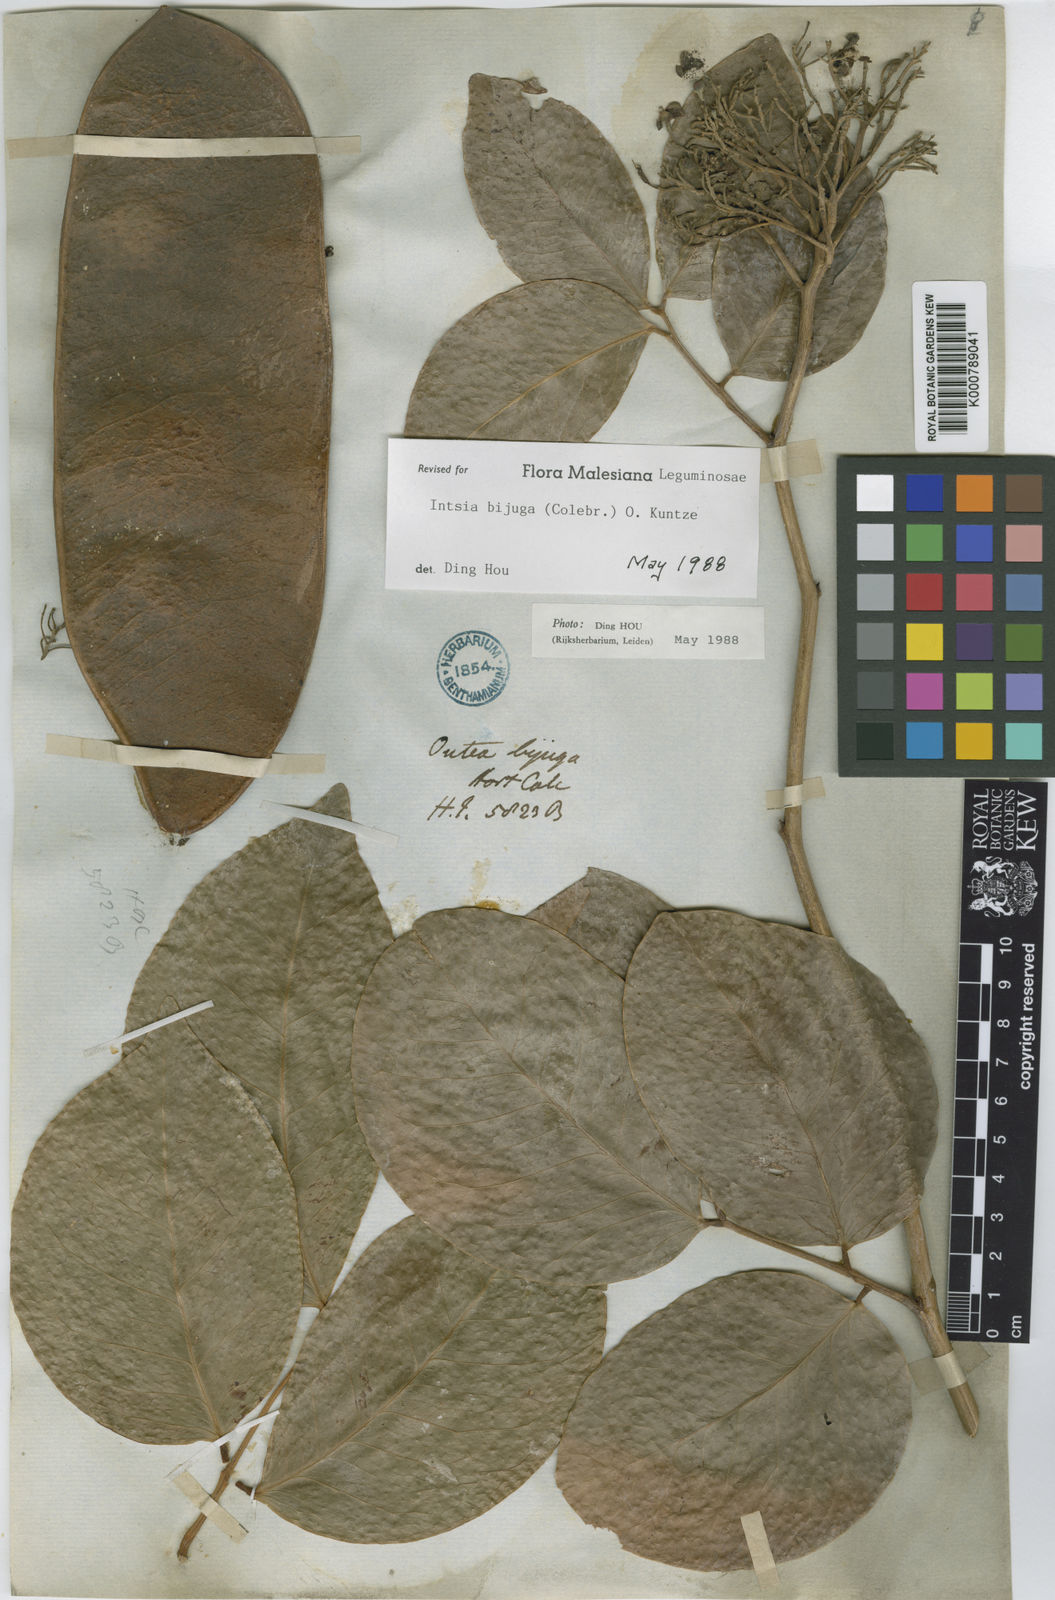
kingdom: Plantae
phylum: Tracheophyta
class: Magnoliopsida
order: Fabales
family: Fabaceae
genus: Intsia
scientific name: Intsia bijuga
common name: Moluccan ironwood
